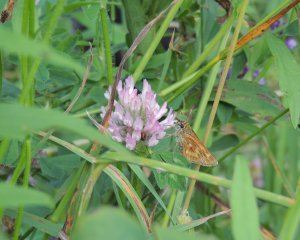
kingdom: Animalia
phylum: Arthropoda
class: Insecta
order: Lepidoptera
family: Hesperiidae
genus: Hesperia
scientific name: Hesperia sassacus
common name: Sassacus Skipper
